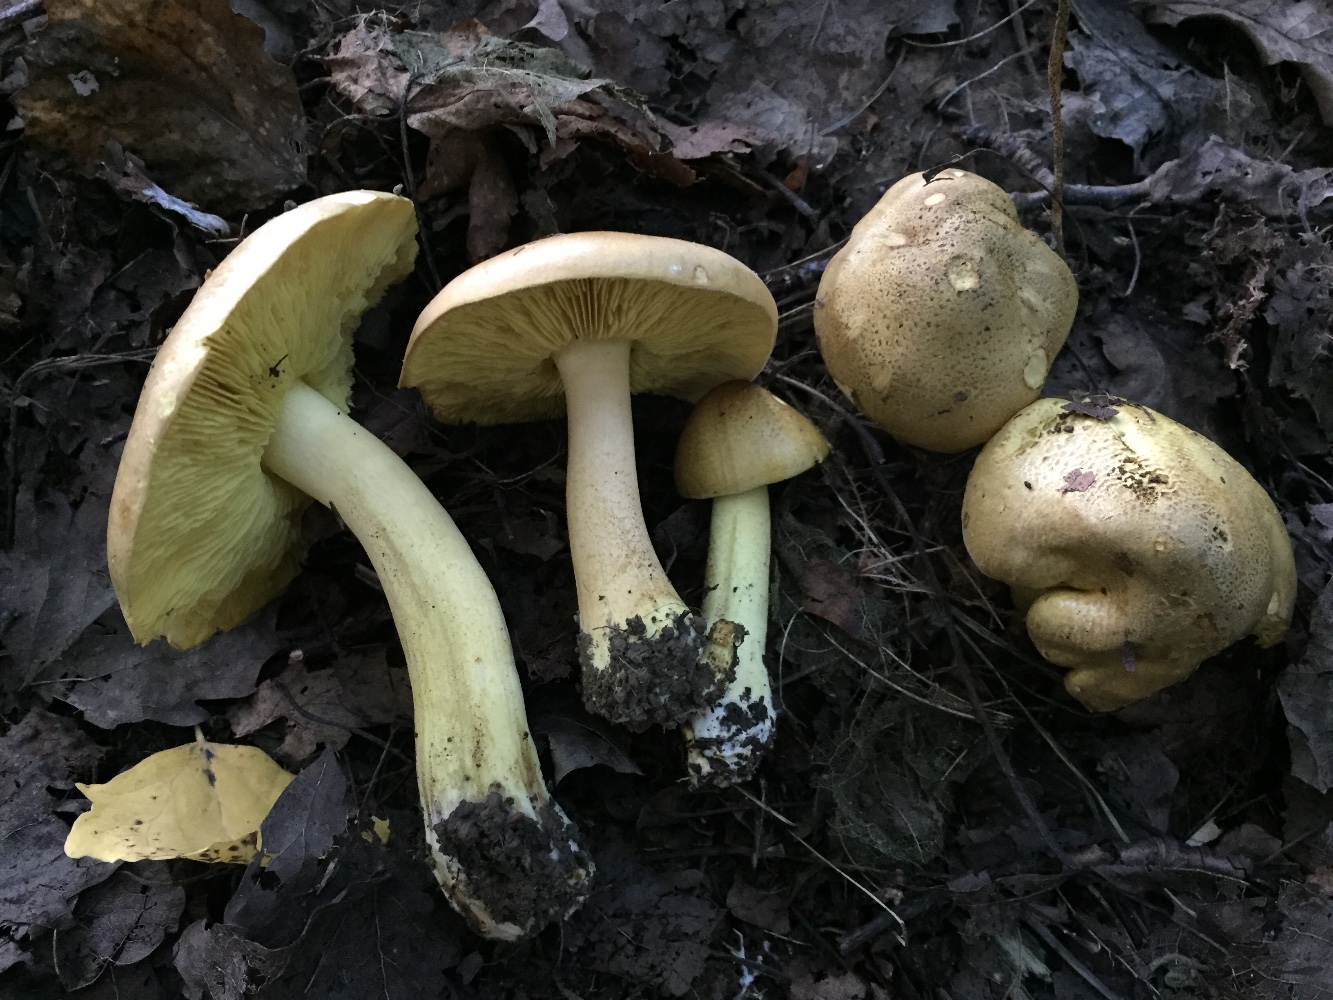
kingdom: Fungi
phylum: Basidiomycota
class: Agaricomycetes
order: Agaricales
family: Tricholomataceae
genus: Tricholoma
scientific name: Tricholoma frondosae
